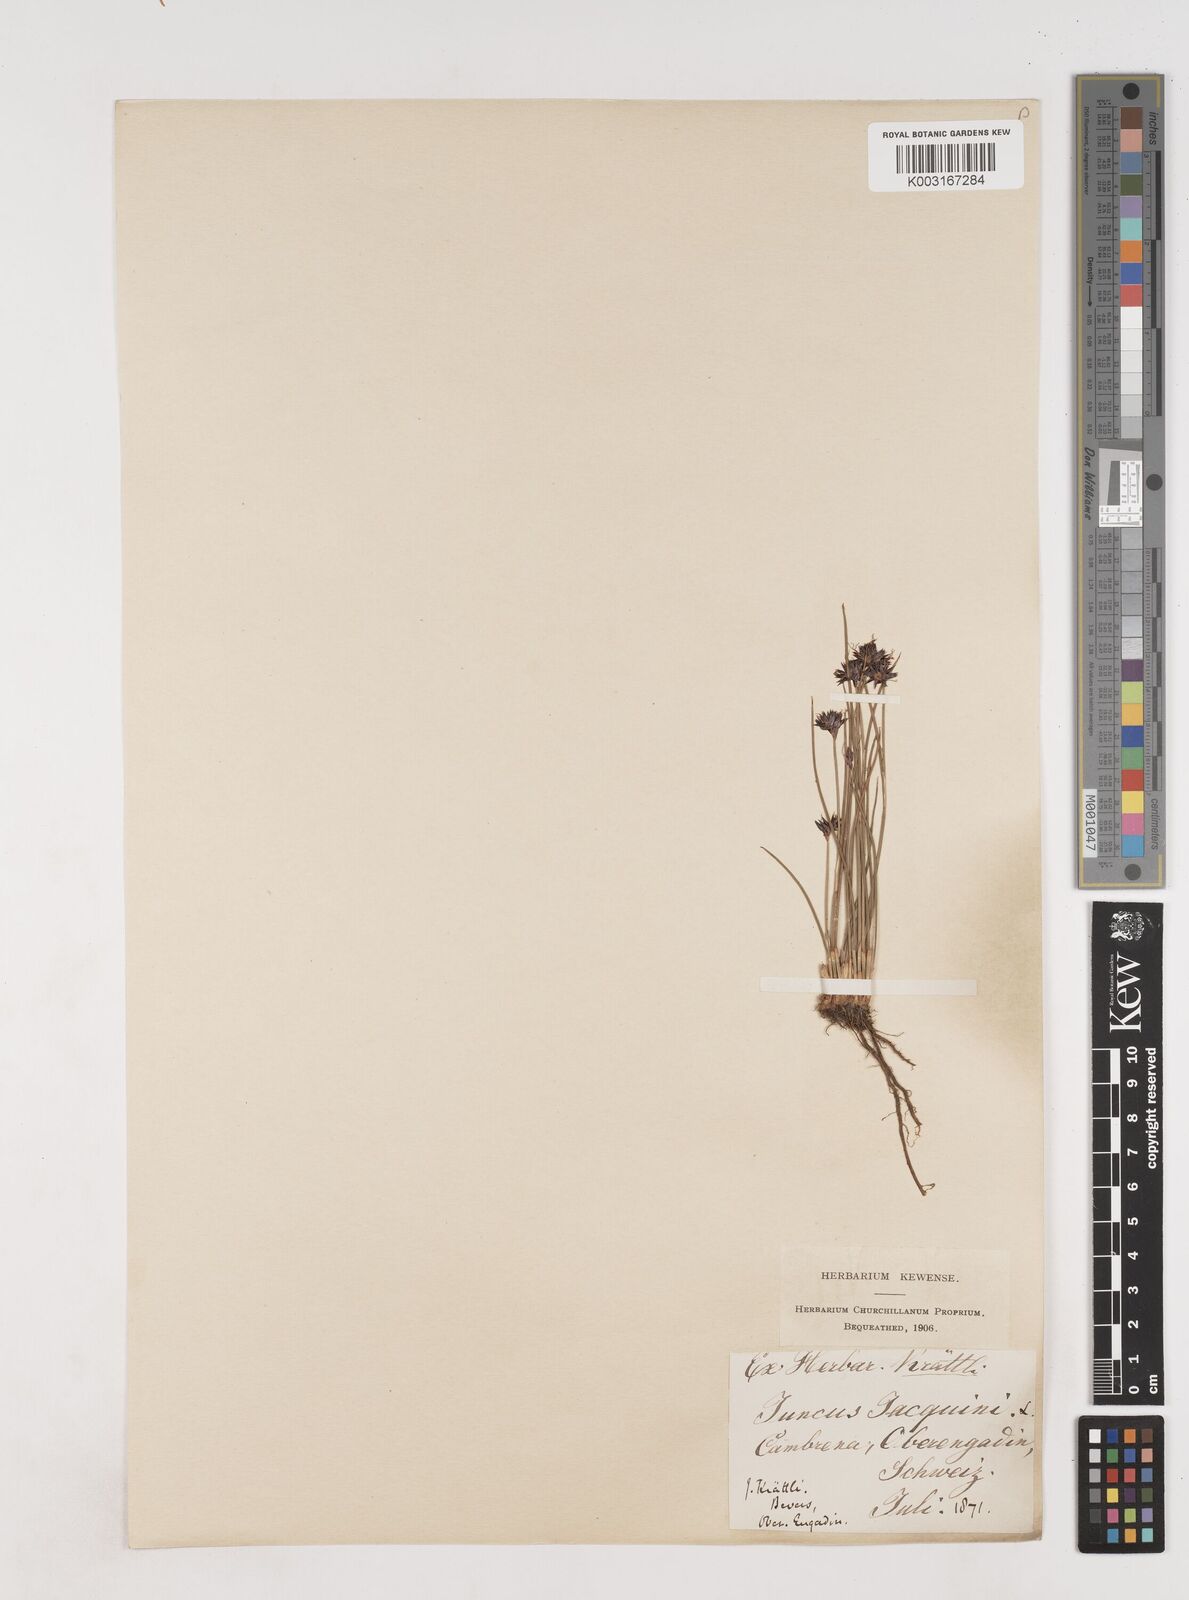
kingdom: Plantae
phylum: Tracheophyta
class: Liliopsida
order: Poales
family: Juncaceae
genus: Juncus
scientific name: Juncus jacquinii
